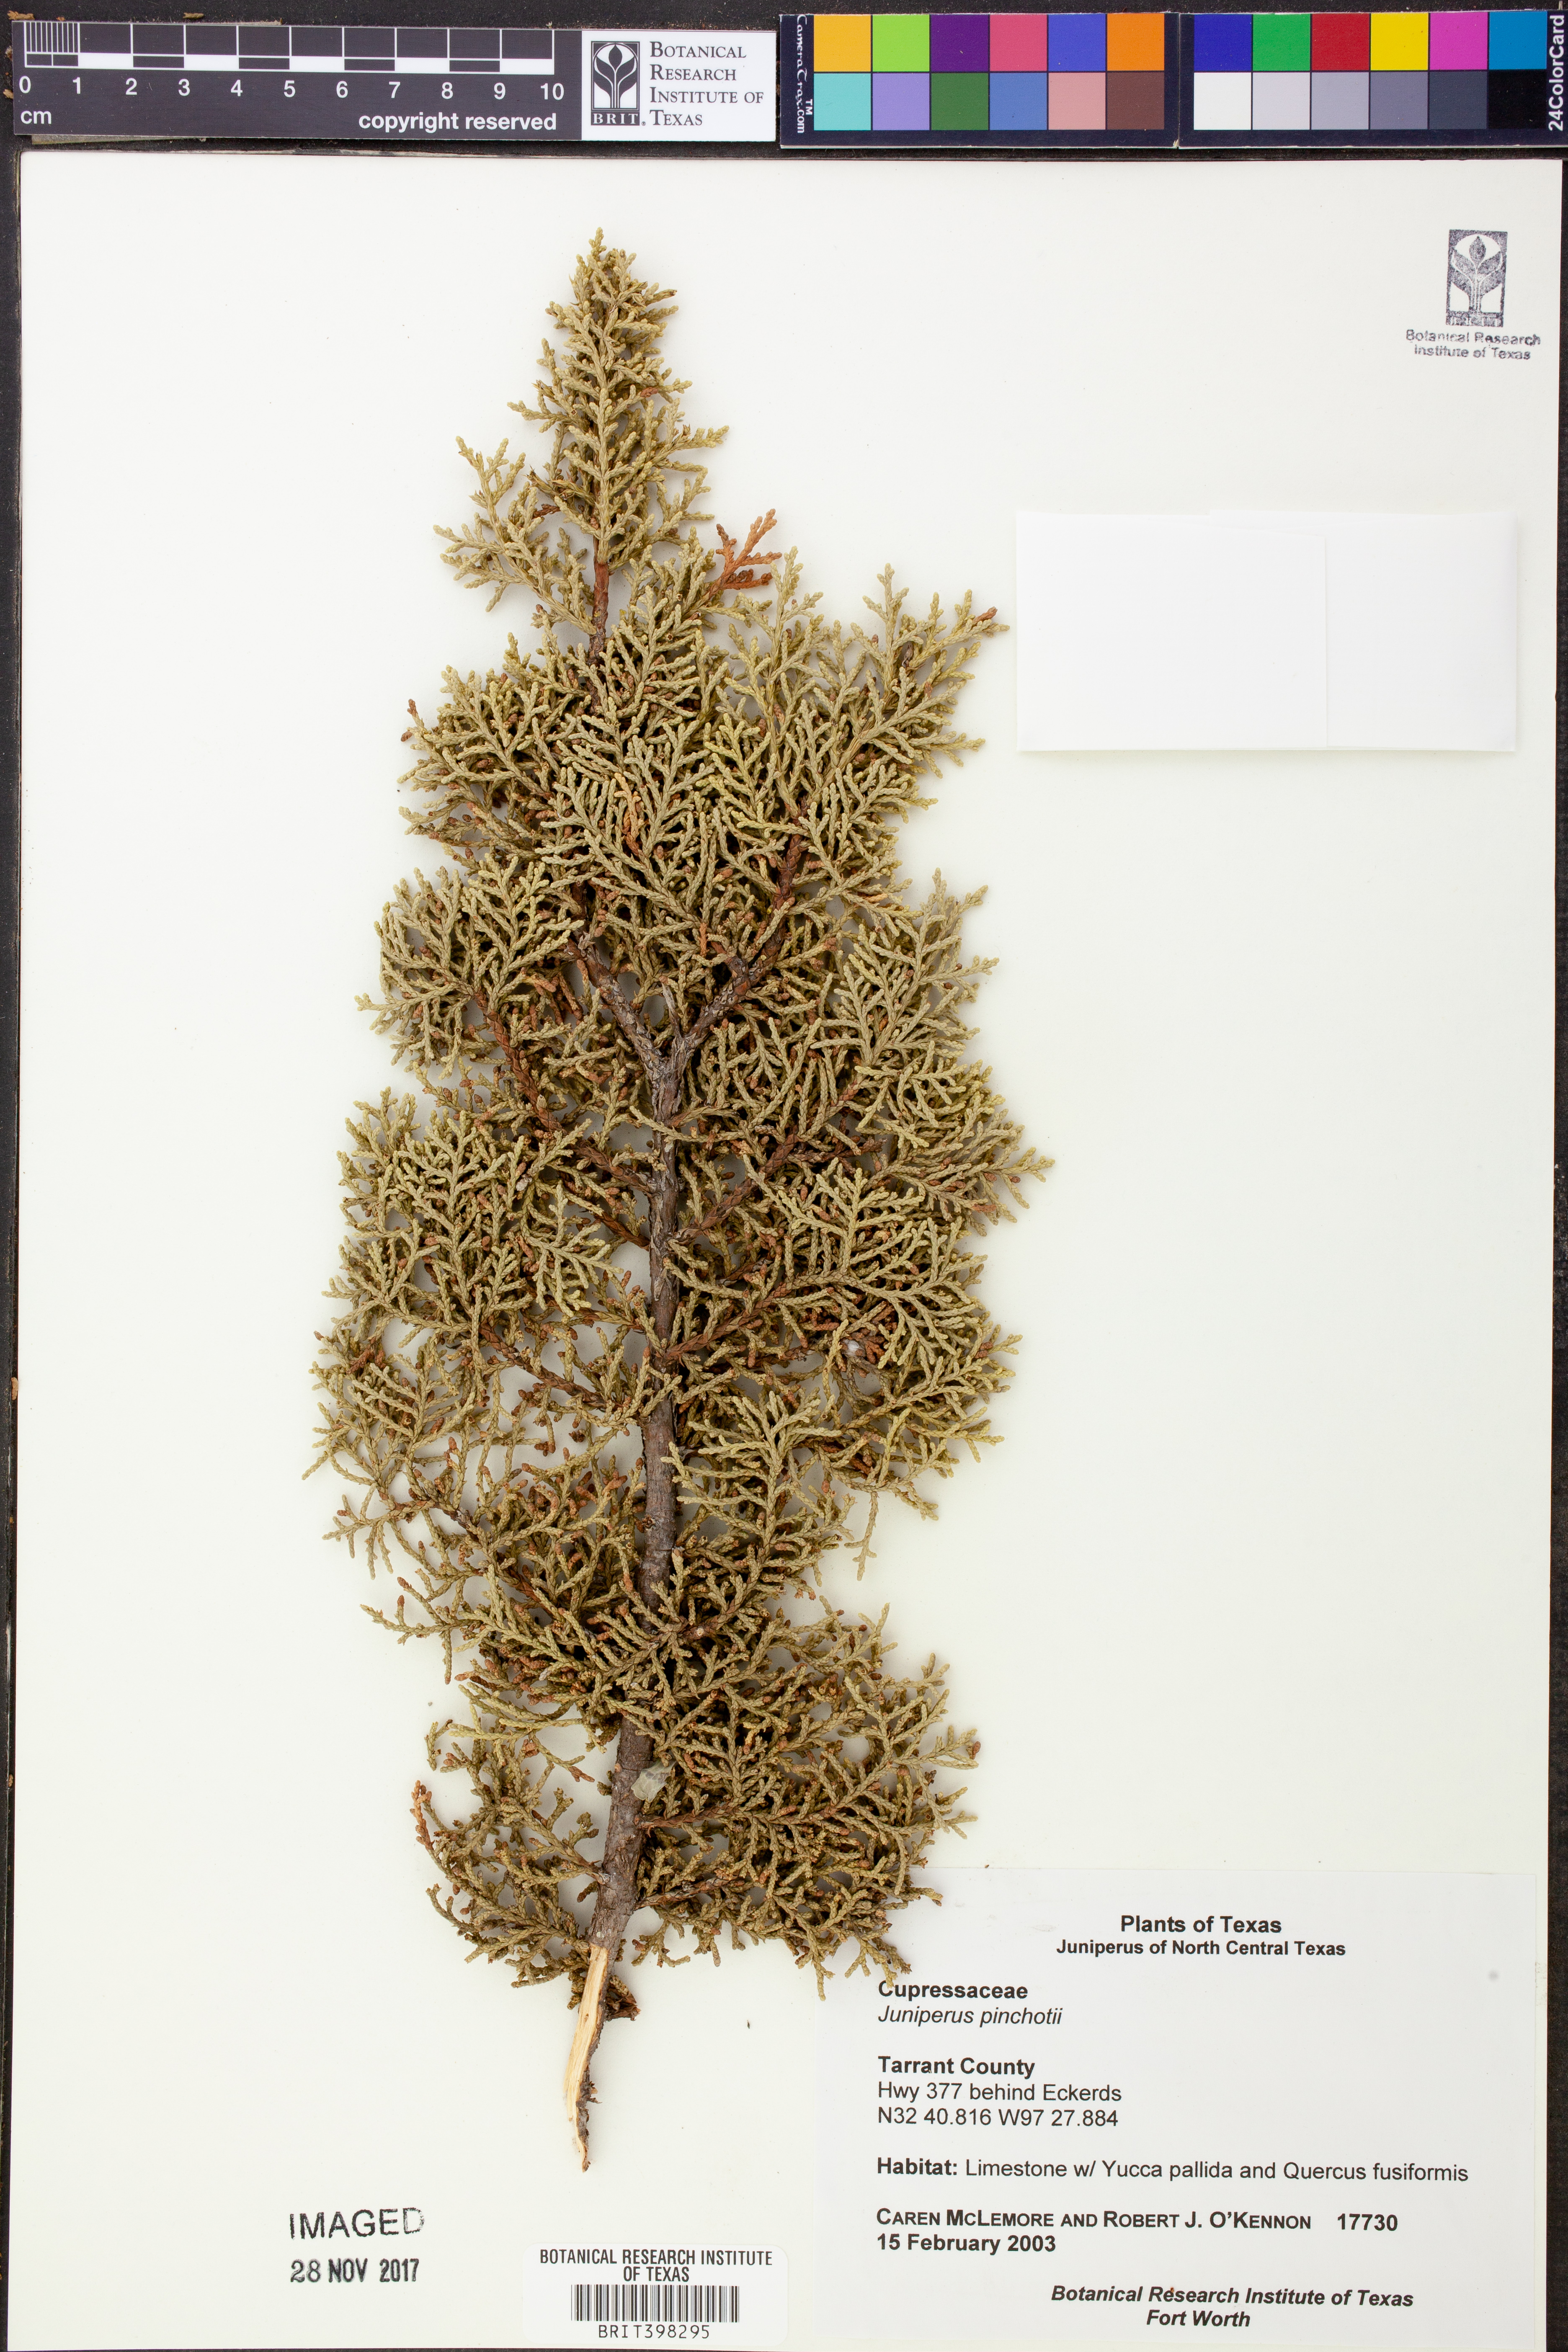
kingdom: Plantae
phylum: Tracheophyta
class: Pinopsida
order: Pinales
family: Cupressaceae
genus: Juniperus
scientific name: Juniperus pinchotii
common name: Pinchot juniper
